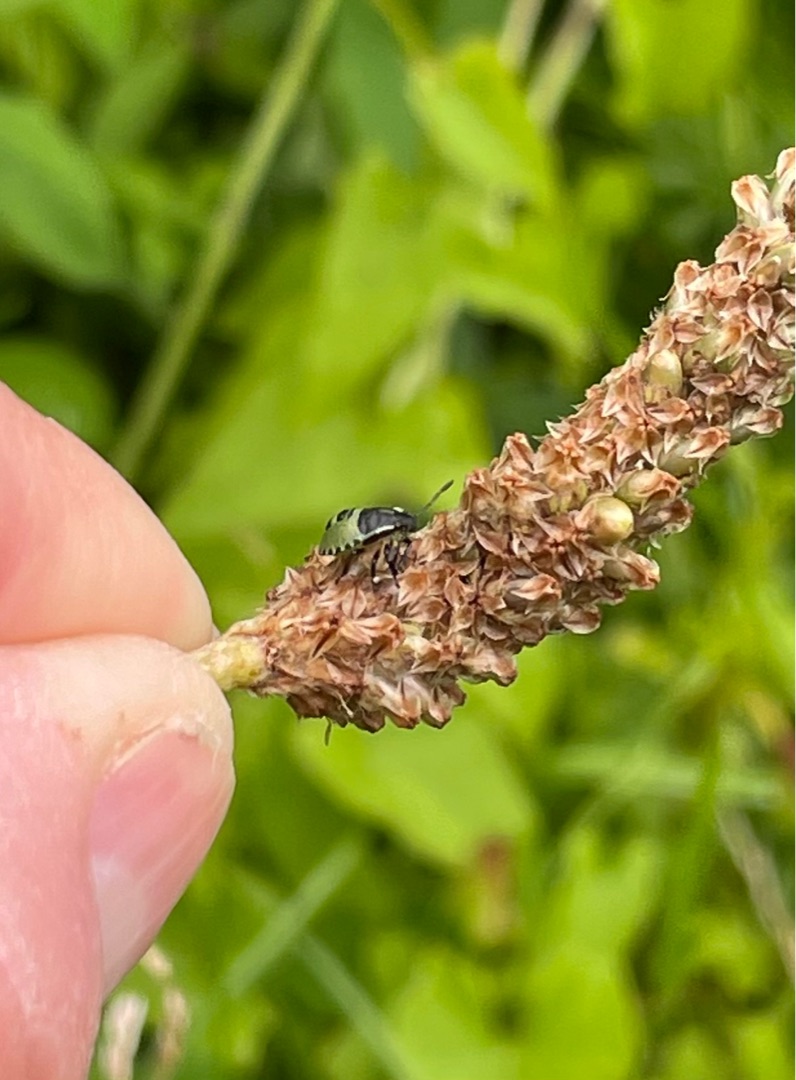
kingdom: Animalia
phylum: Arthropoda
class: Insecta
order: Hemiptera
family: Pentatomidae
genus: Palomena
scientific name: Palomena prasina
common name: Grøn bredtæge
